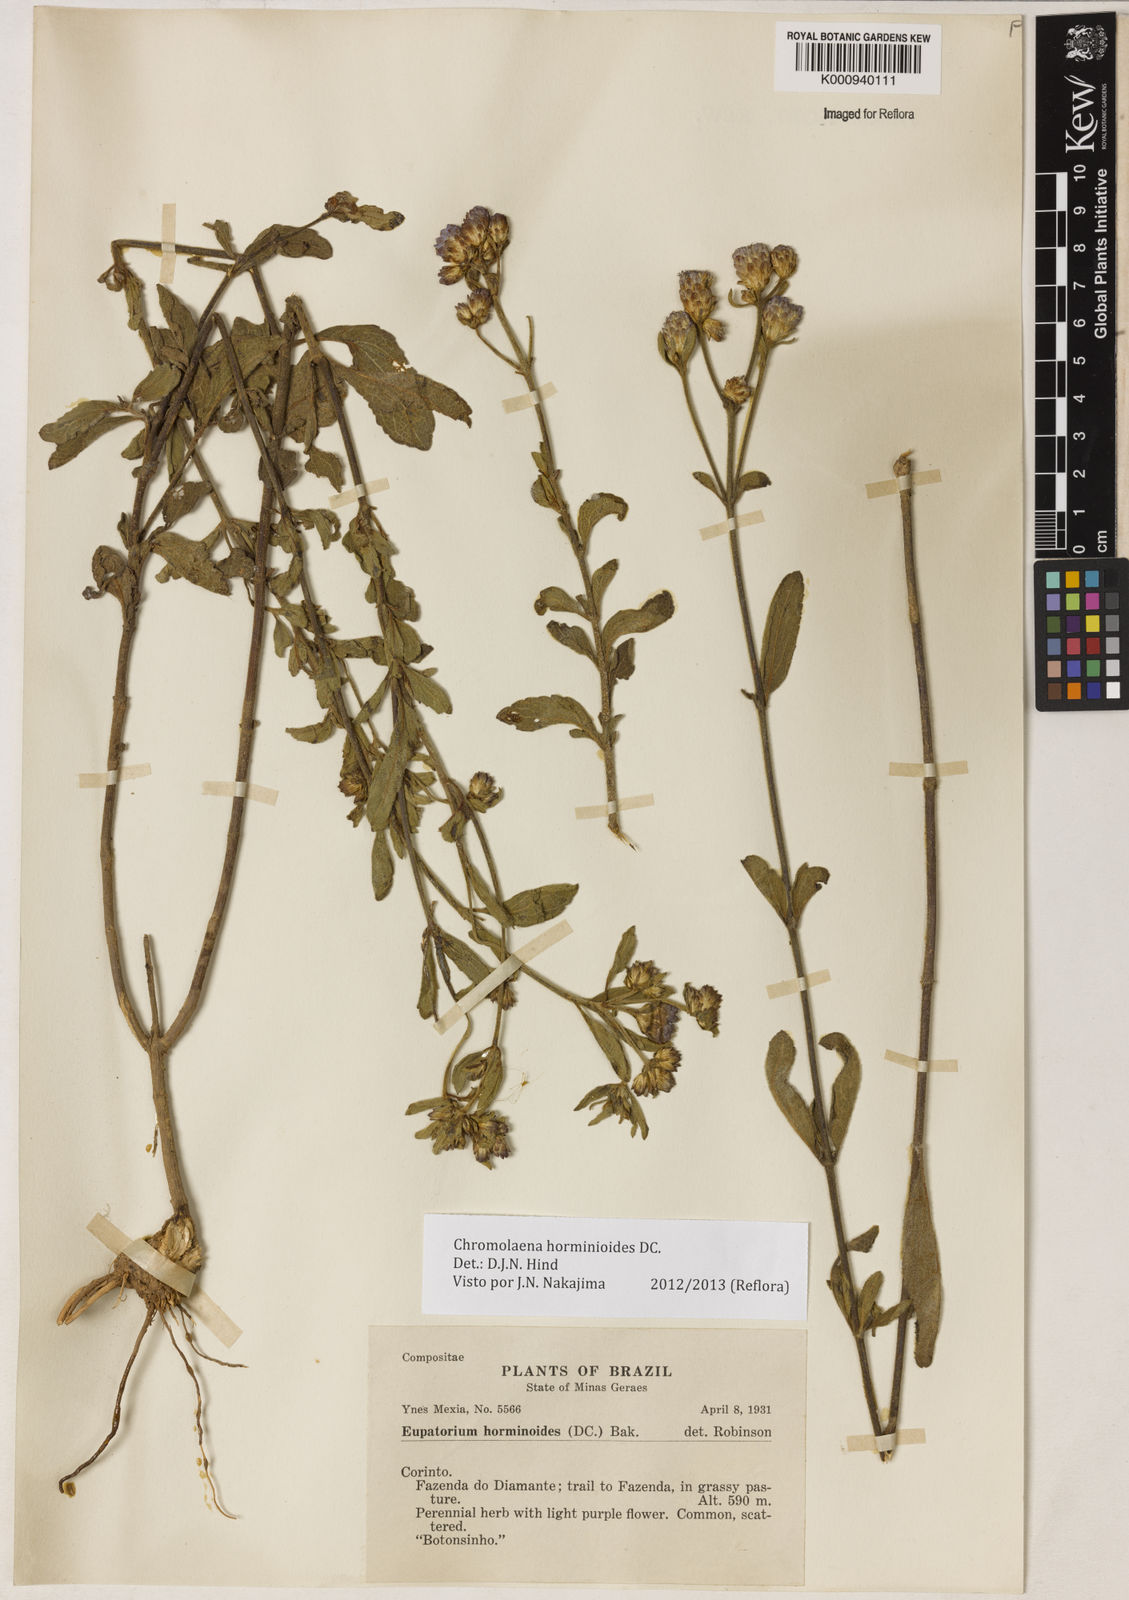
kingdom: Plantae
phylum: Tracheophyta
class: Magnoliopsida
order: Asterales
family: Asteraceae
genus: Chromolaena
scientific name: Chromolaena horminoides
